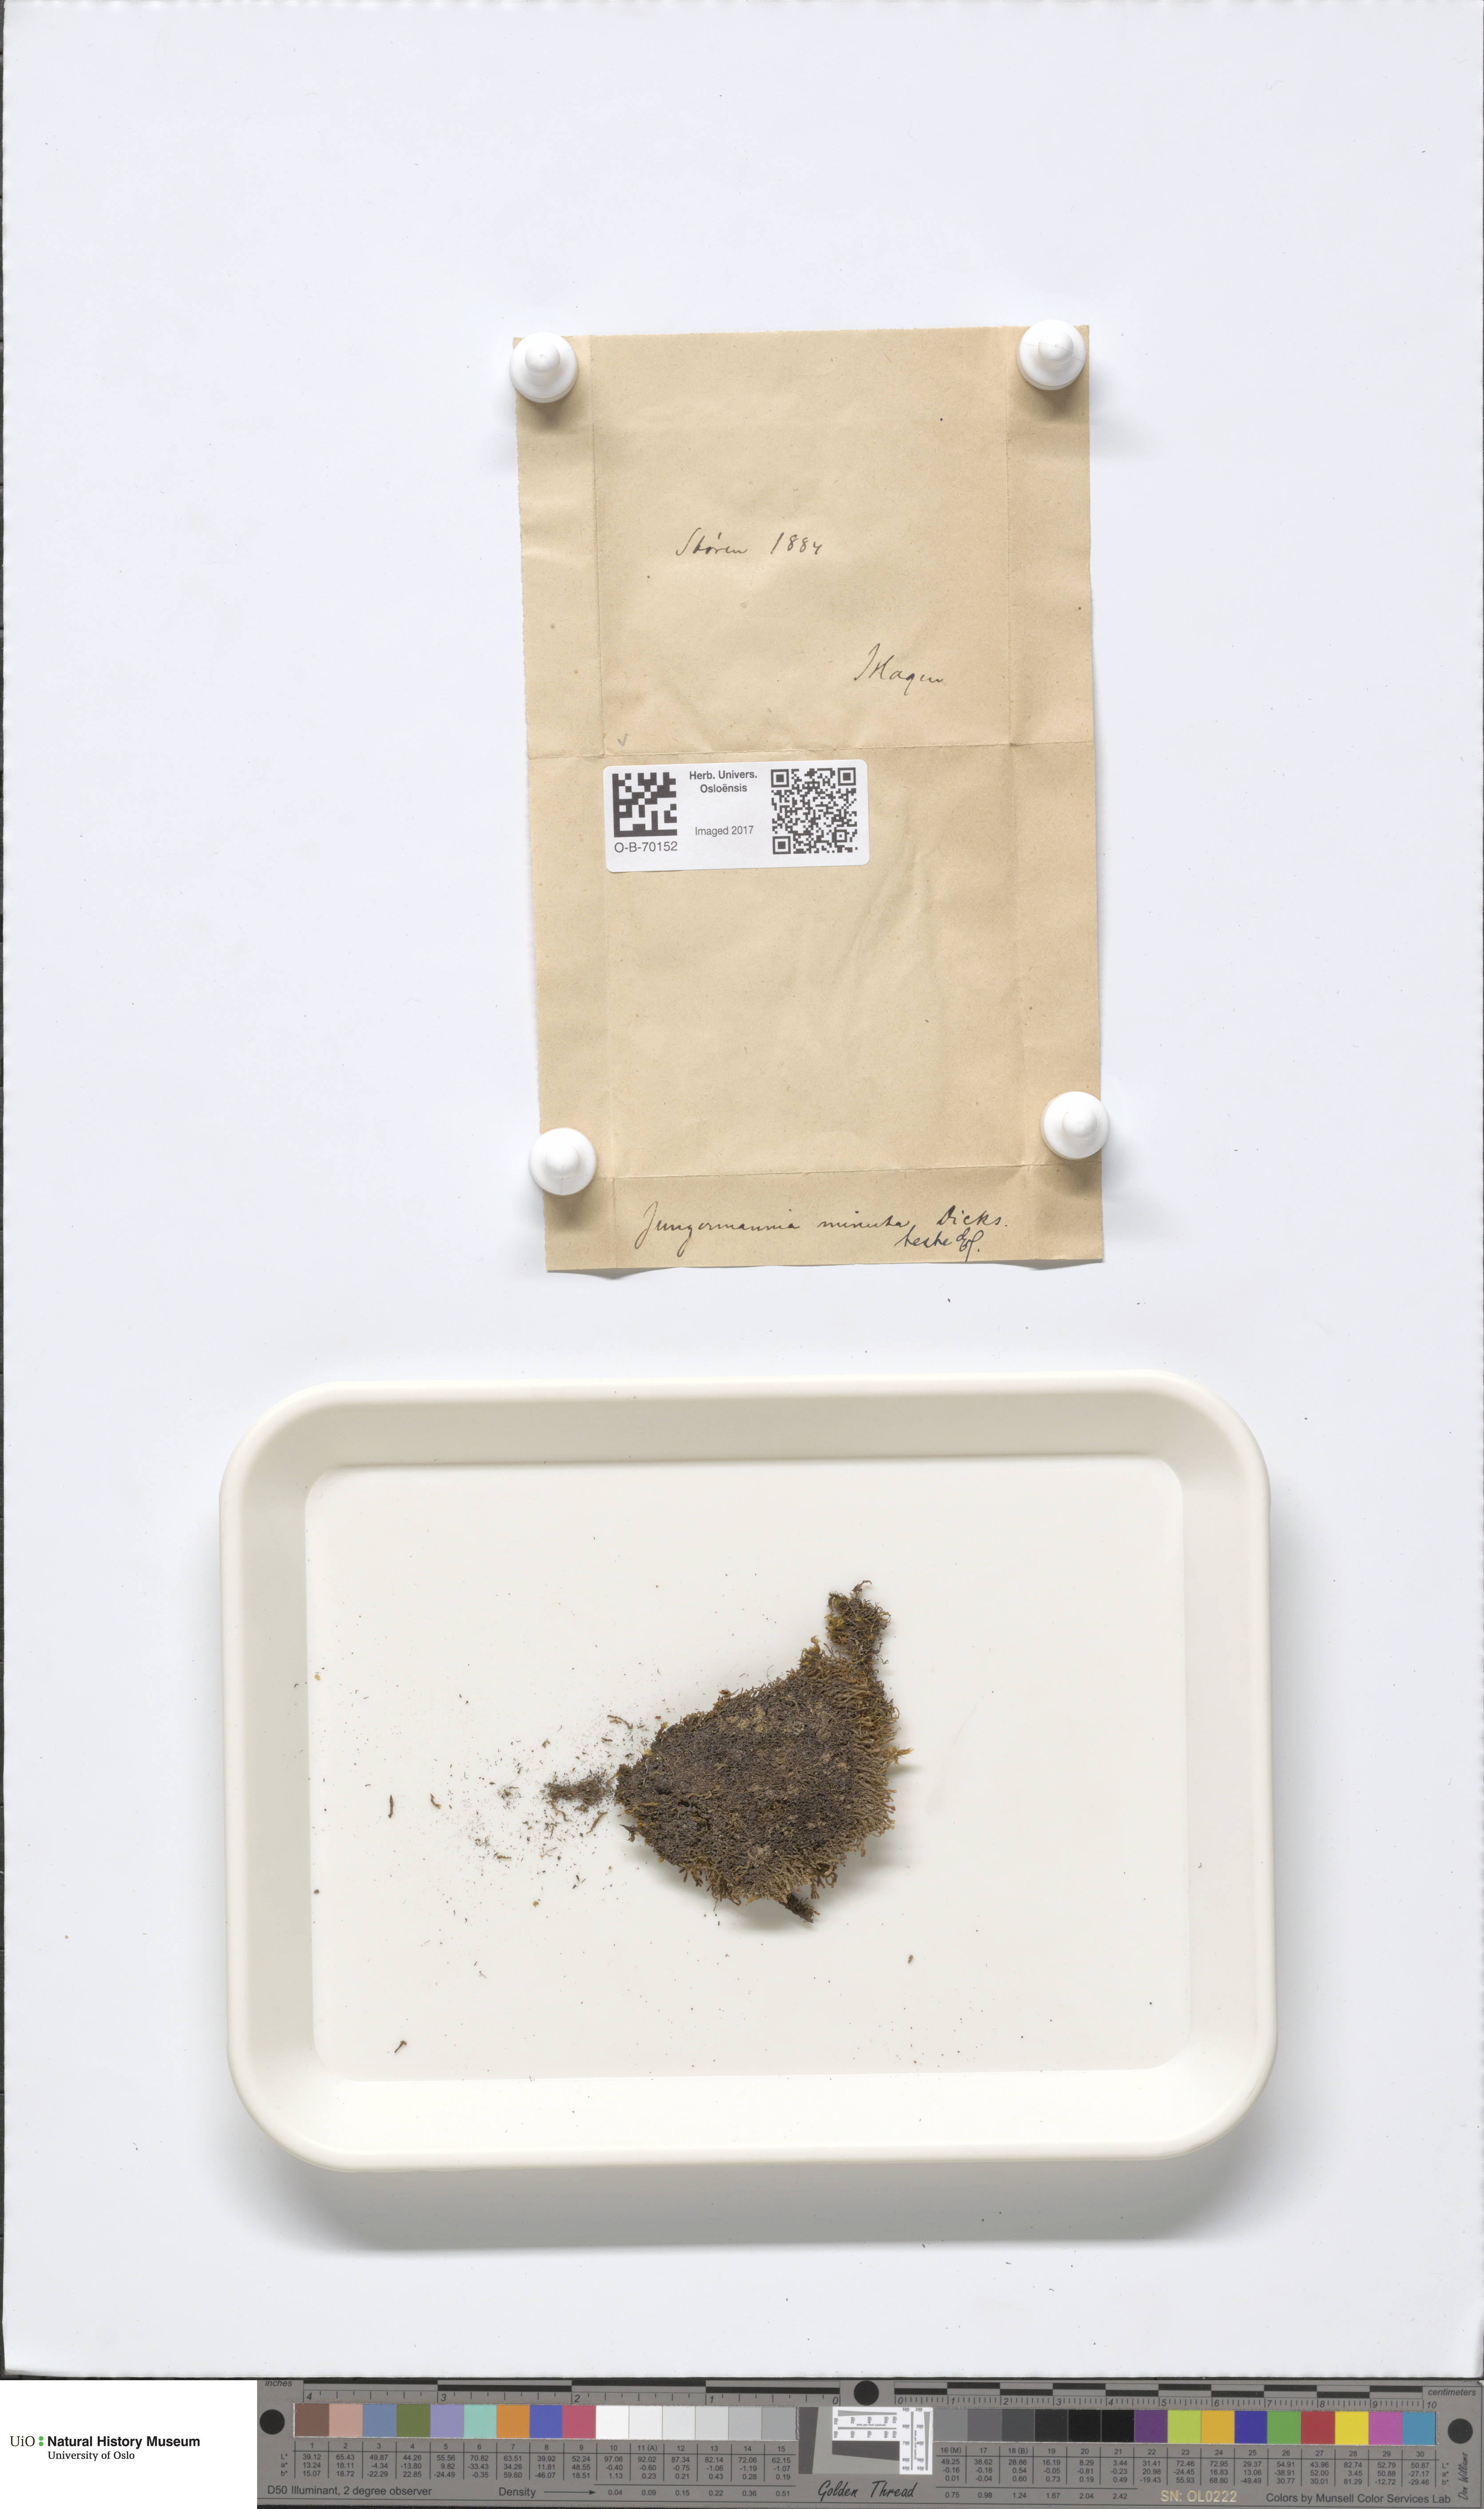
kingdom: Plantae
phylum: Marchantiophyta
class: Jungermanniopsida
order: Jungermanniales
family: Anastrophyllaceae
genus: Sphenolobus
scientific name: Sphenolobus minutus
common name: Comb notchwort
